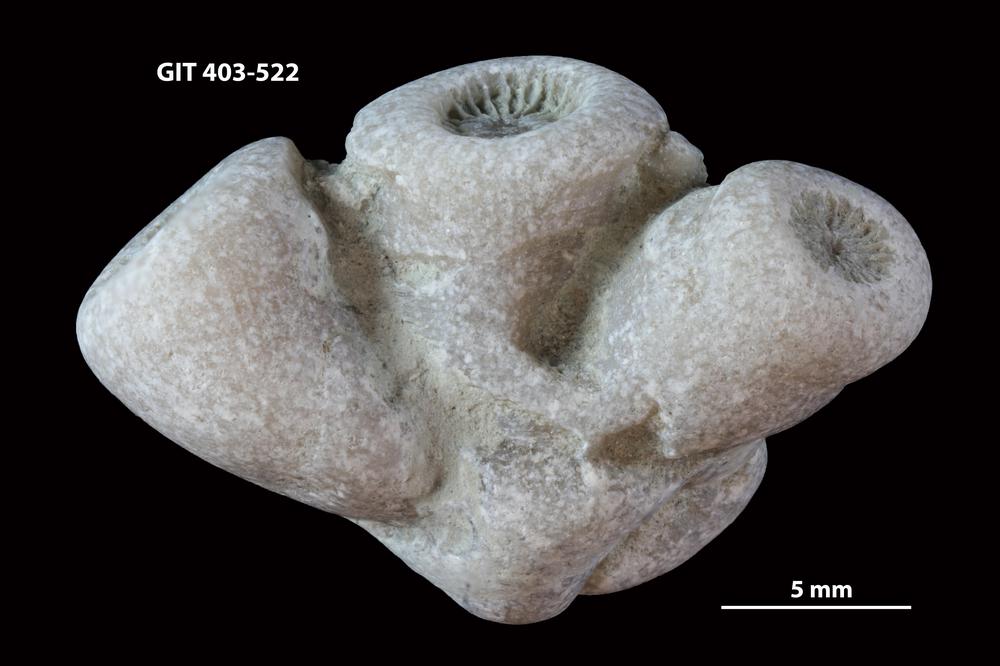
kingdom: Animalia
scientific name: Animalia
